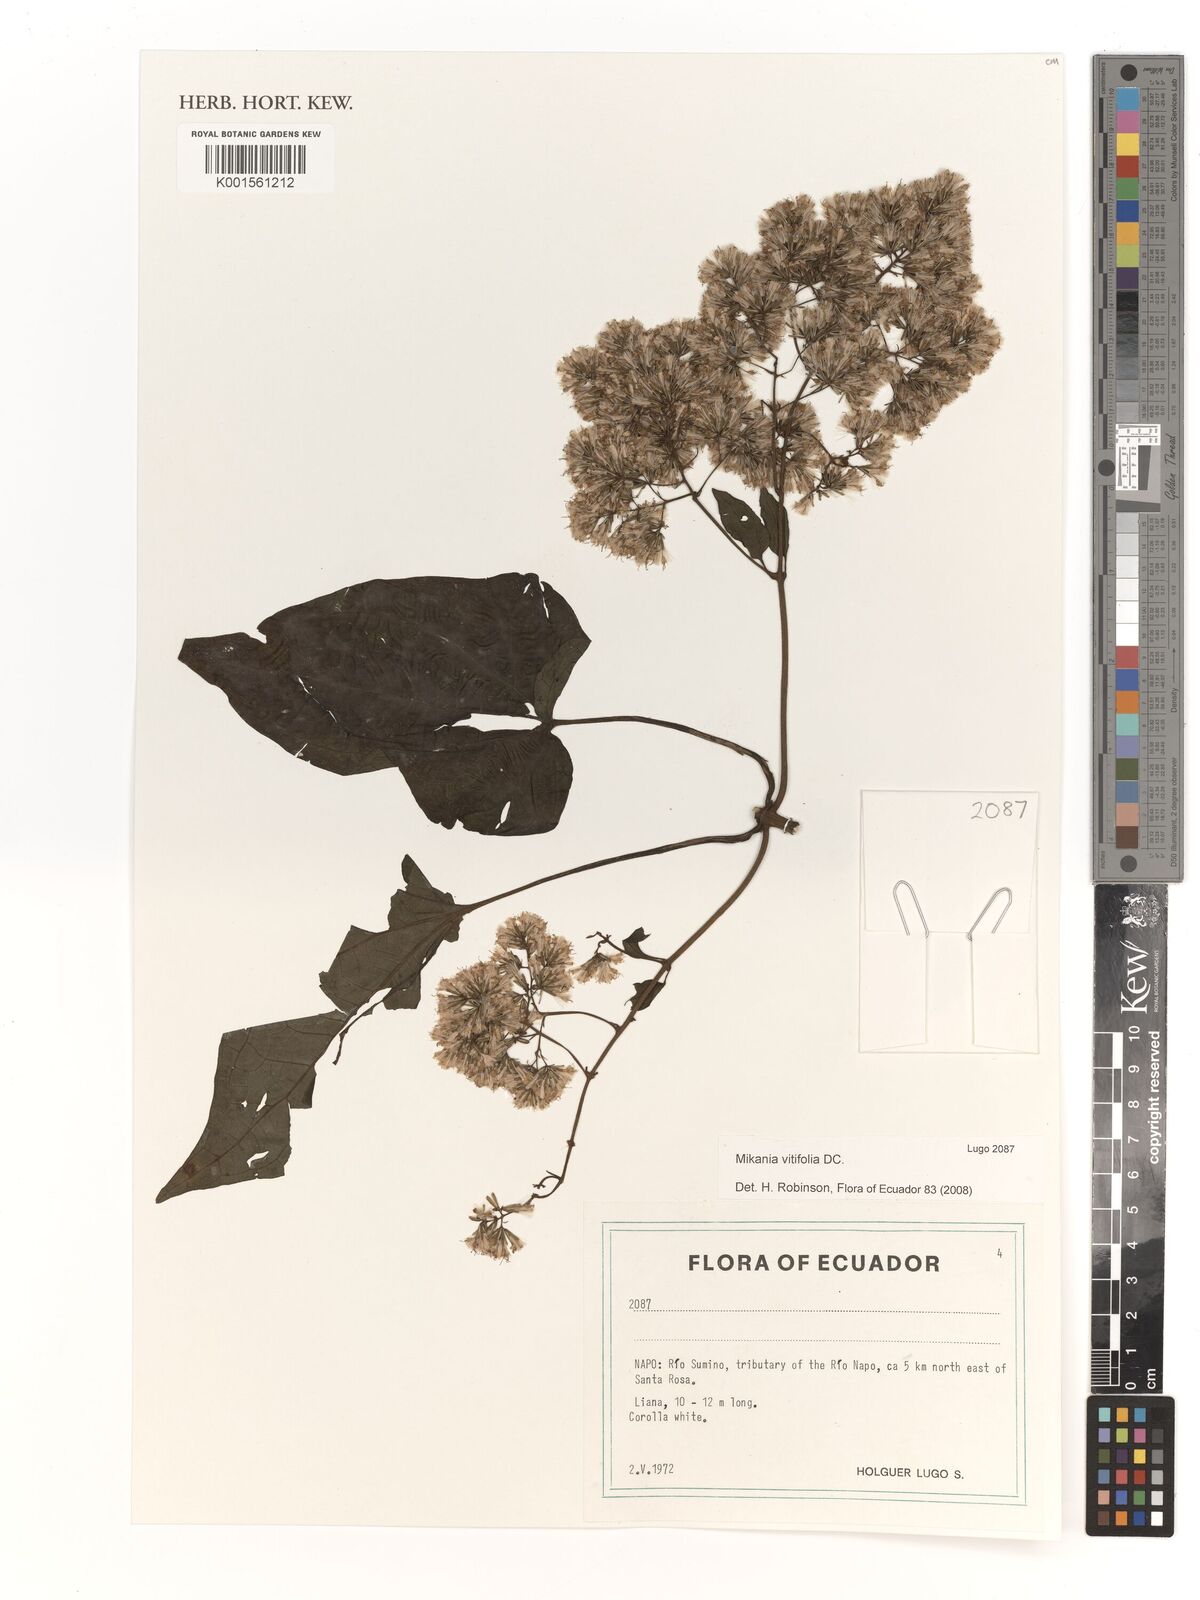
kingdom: Plantae
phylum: Tracheophyta
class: Magnoliopsida
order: Asterales
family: Asteraceae
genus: Mikania
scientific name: Mikania vitifolia
